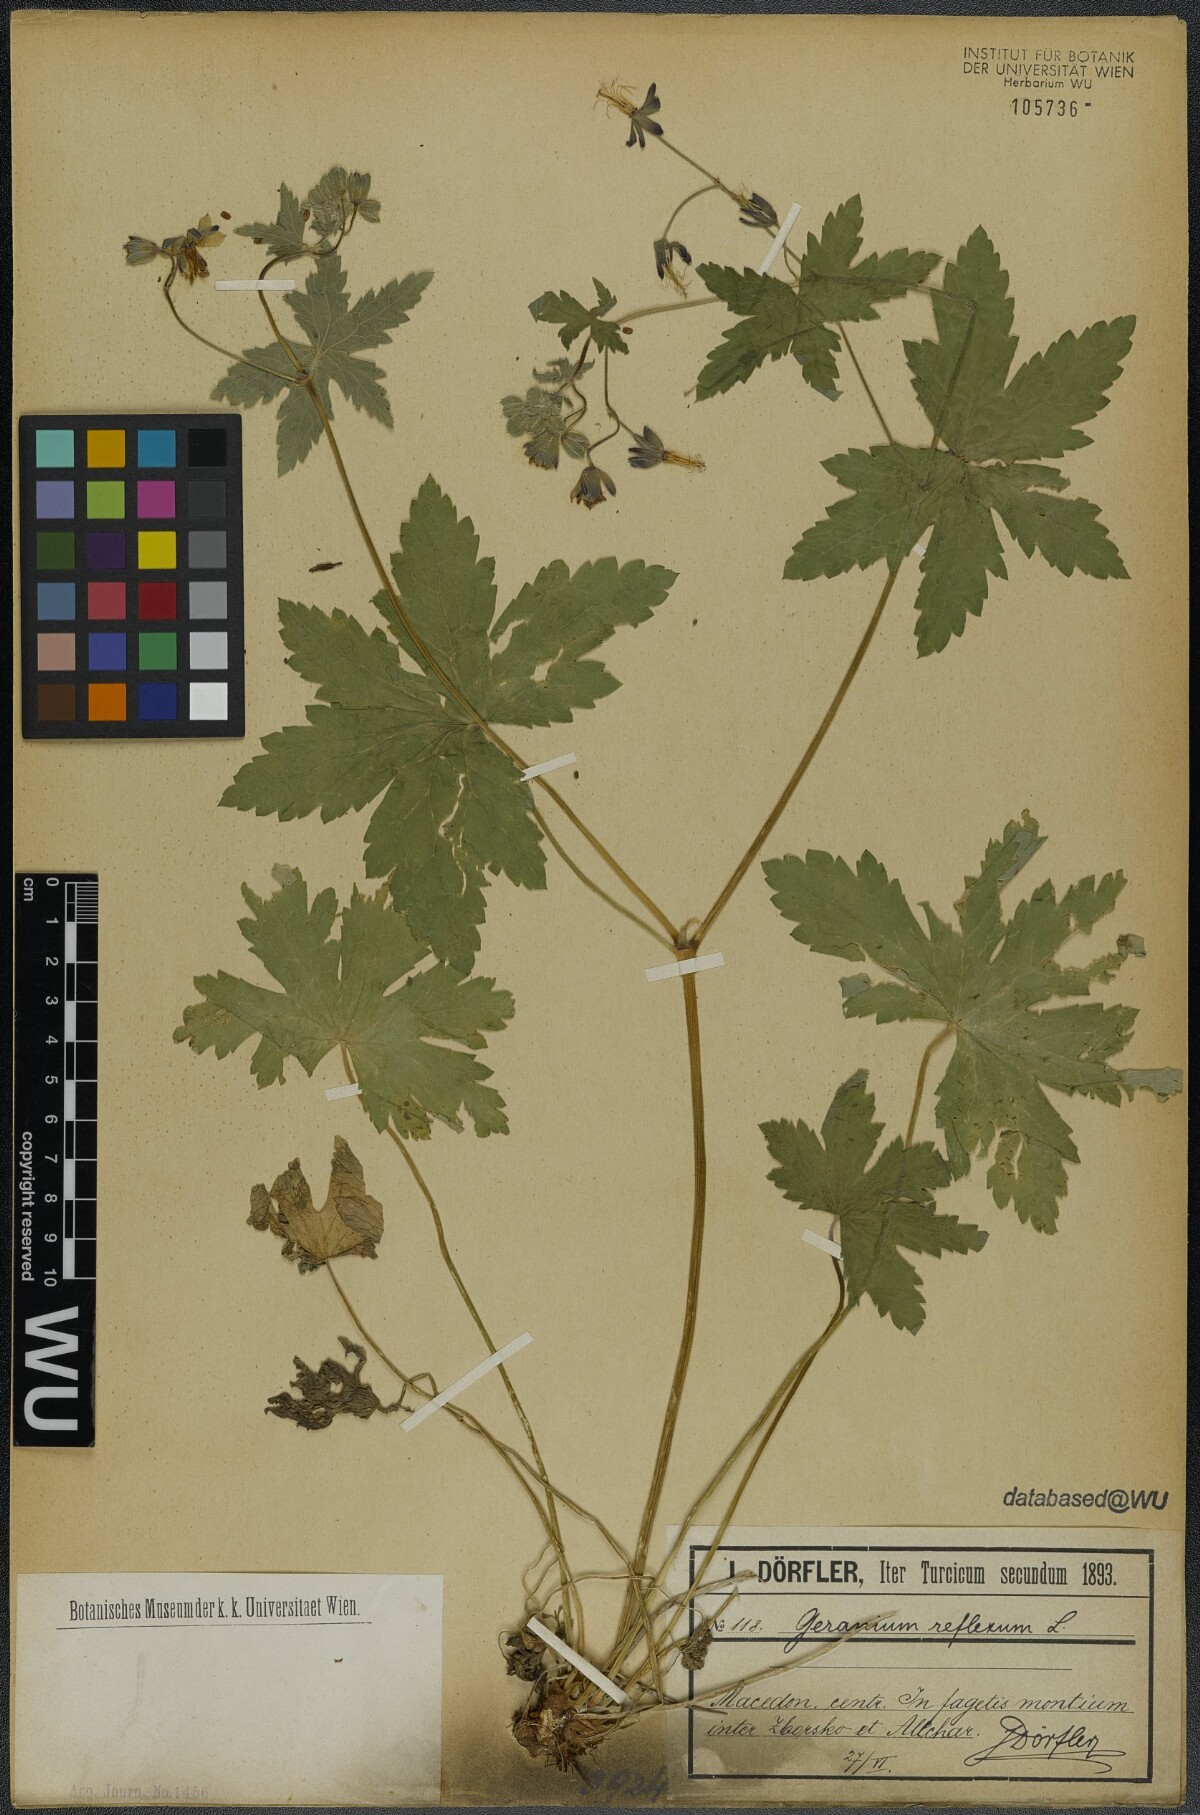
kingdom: Plantae
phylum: Tracheophyta
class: Magnoliopsida
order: Geraniales
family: Geraniaceae
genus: Geranium
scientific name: Geranium reflexum
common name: Reflexed crane's-bill
